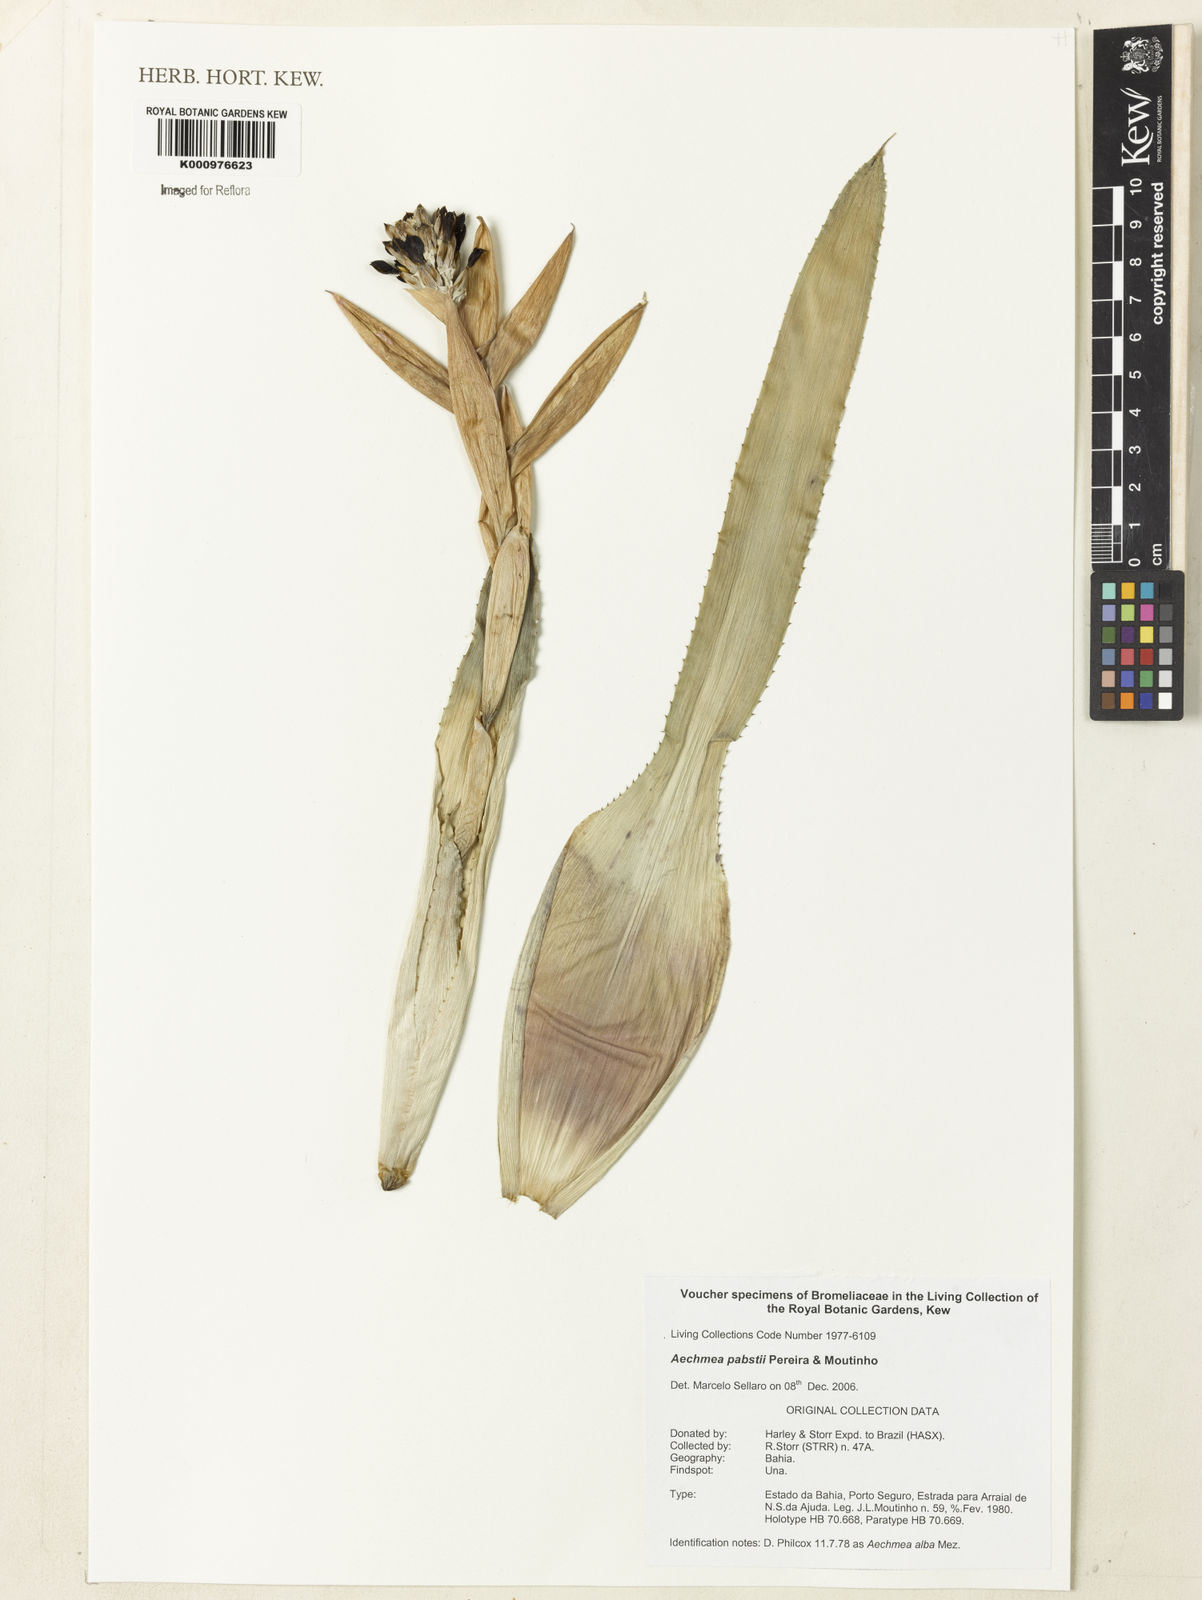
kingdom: Plantae
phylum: Tracheophyta
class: Liliopsida
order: Poales
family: Bromeliaceae
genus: Aechmea
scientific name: Aechmea pabstii
